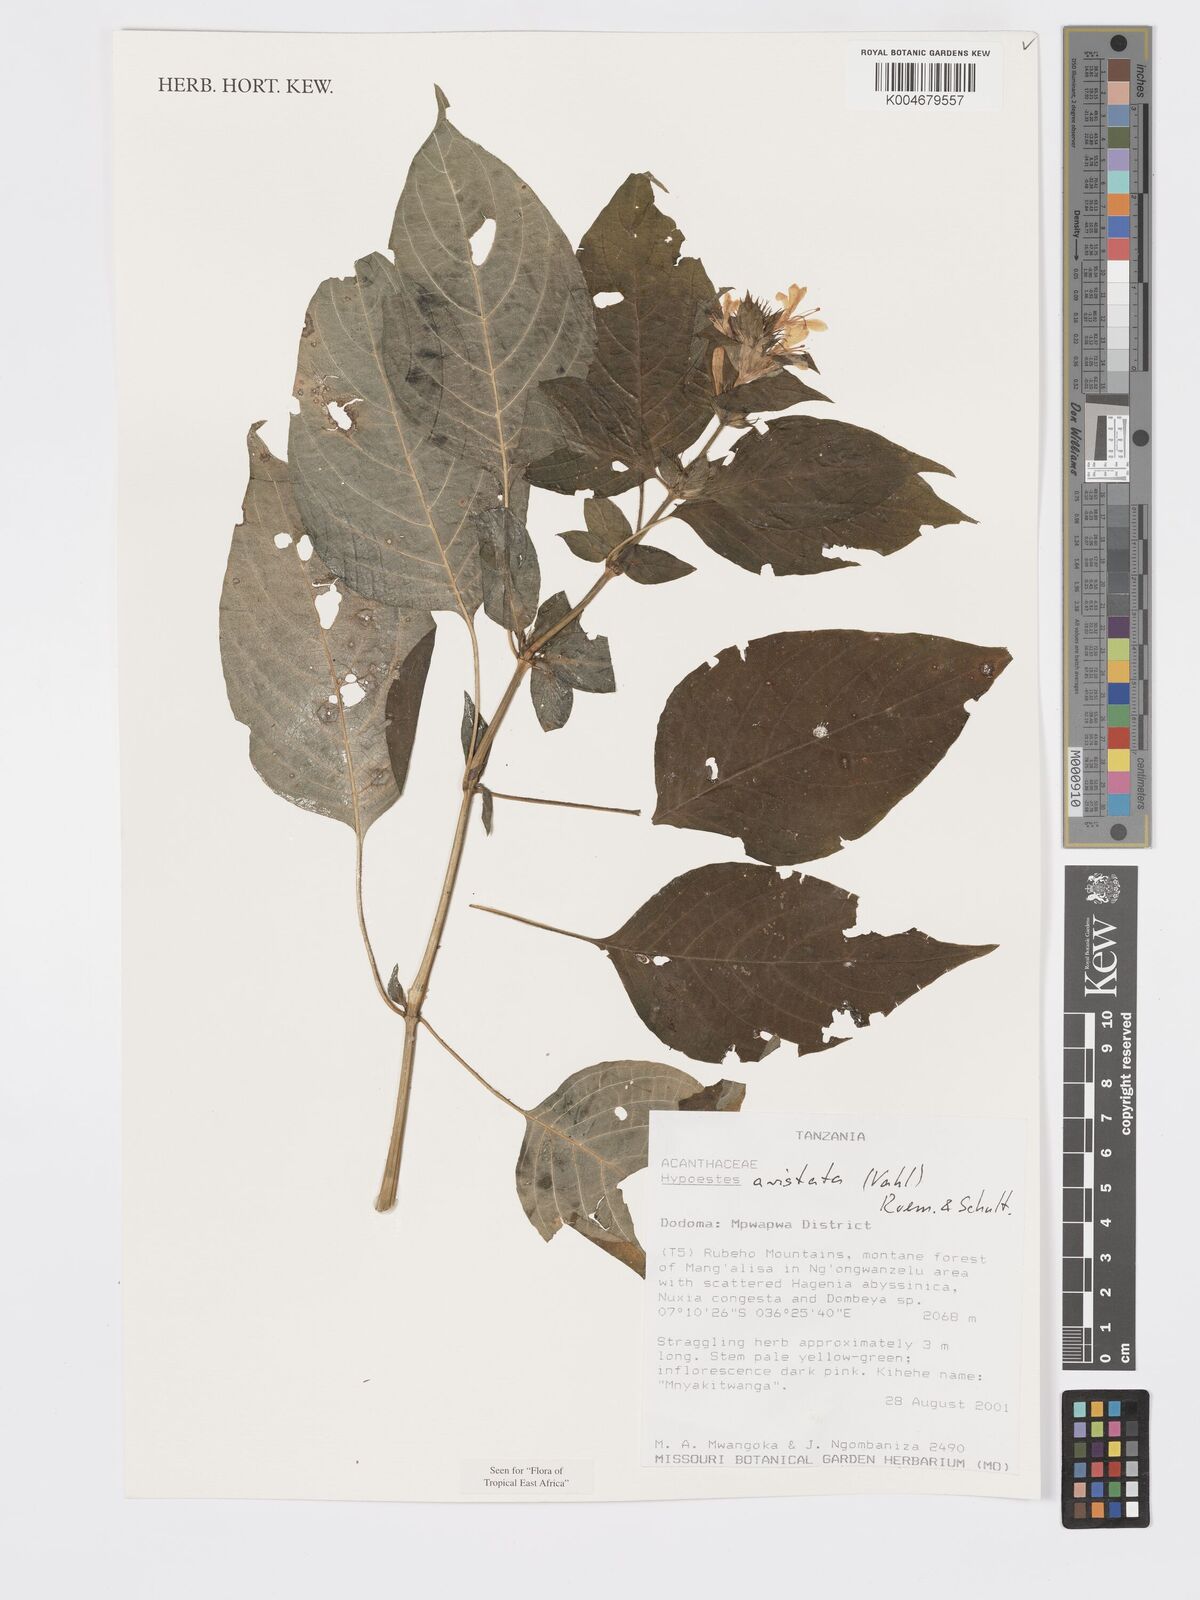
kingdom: Plantae
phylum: Tracheophyta
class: Magnoliopsida
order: Lamiales
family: Acanthaceae
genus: Hypoestes
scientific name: Hypoestes aristata
